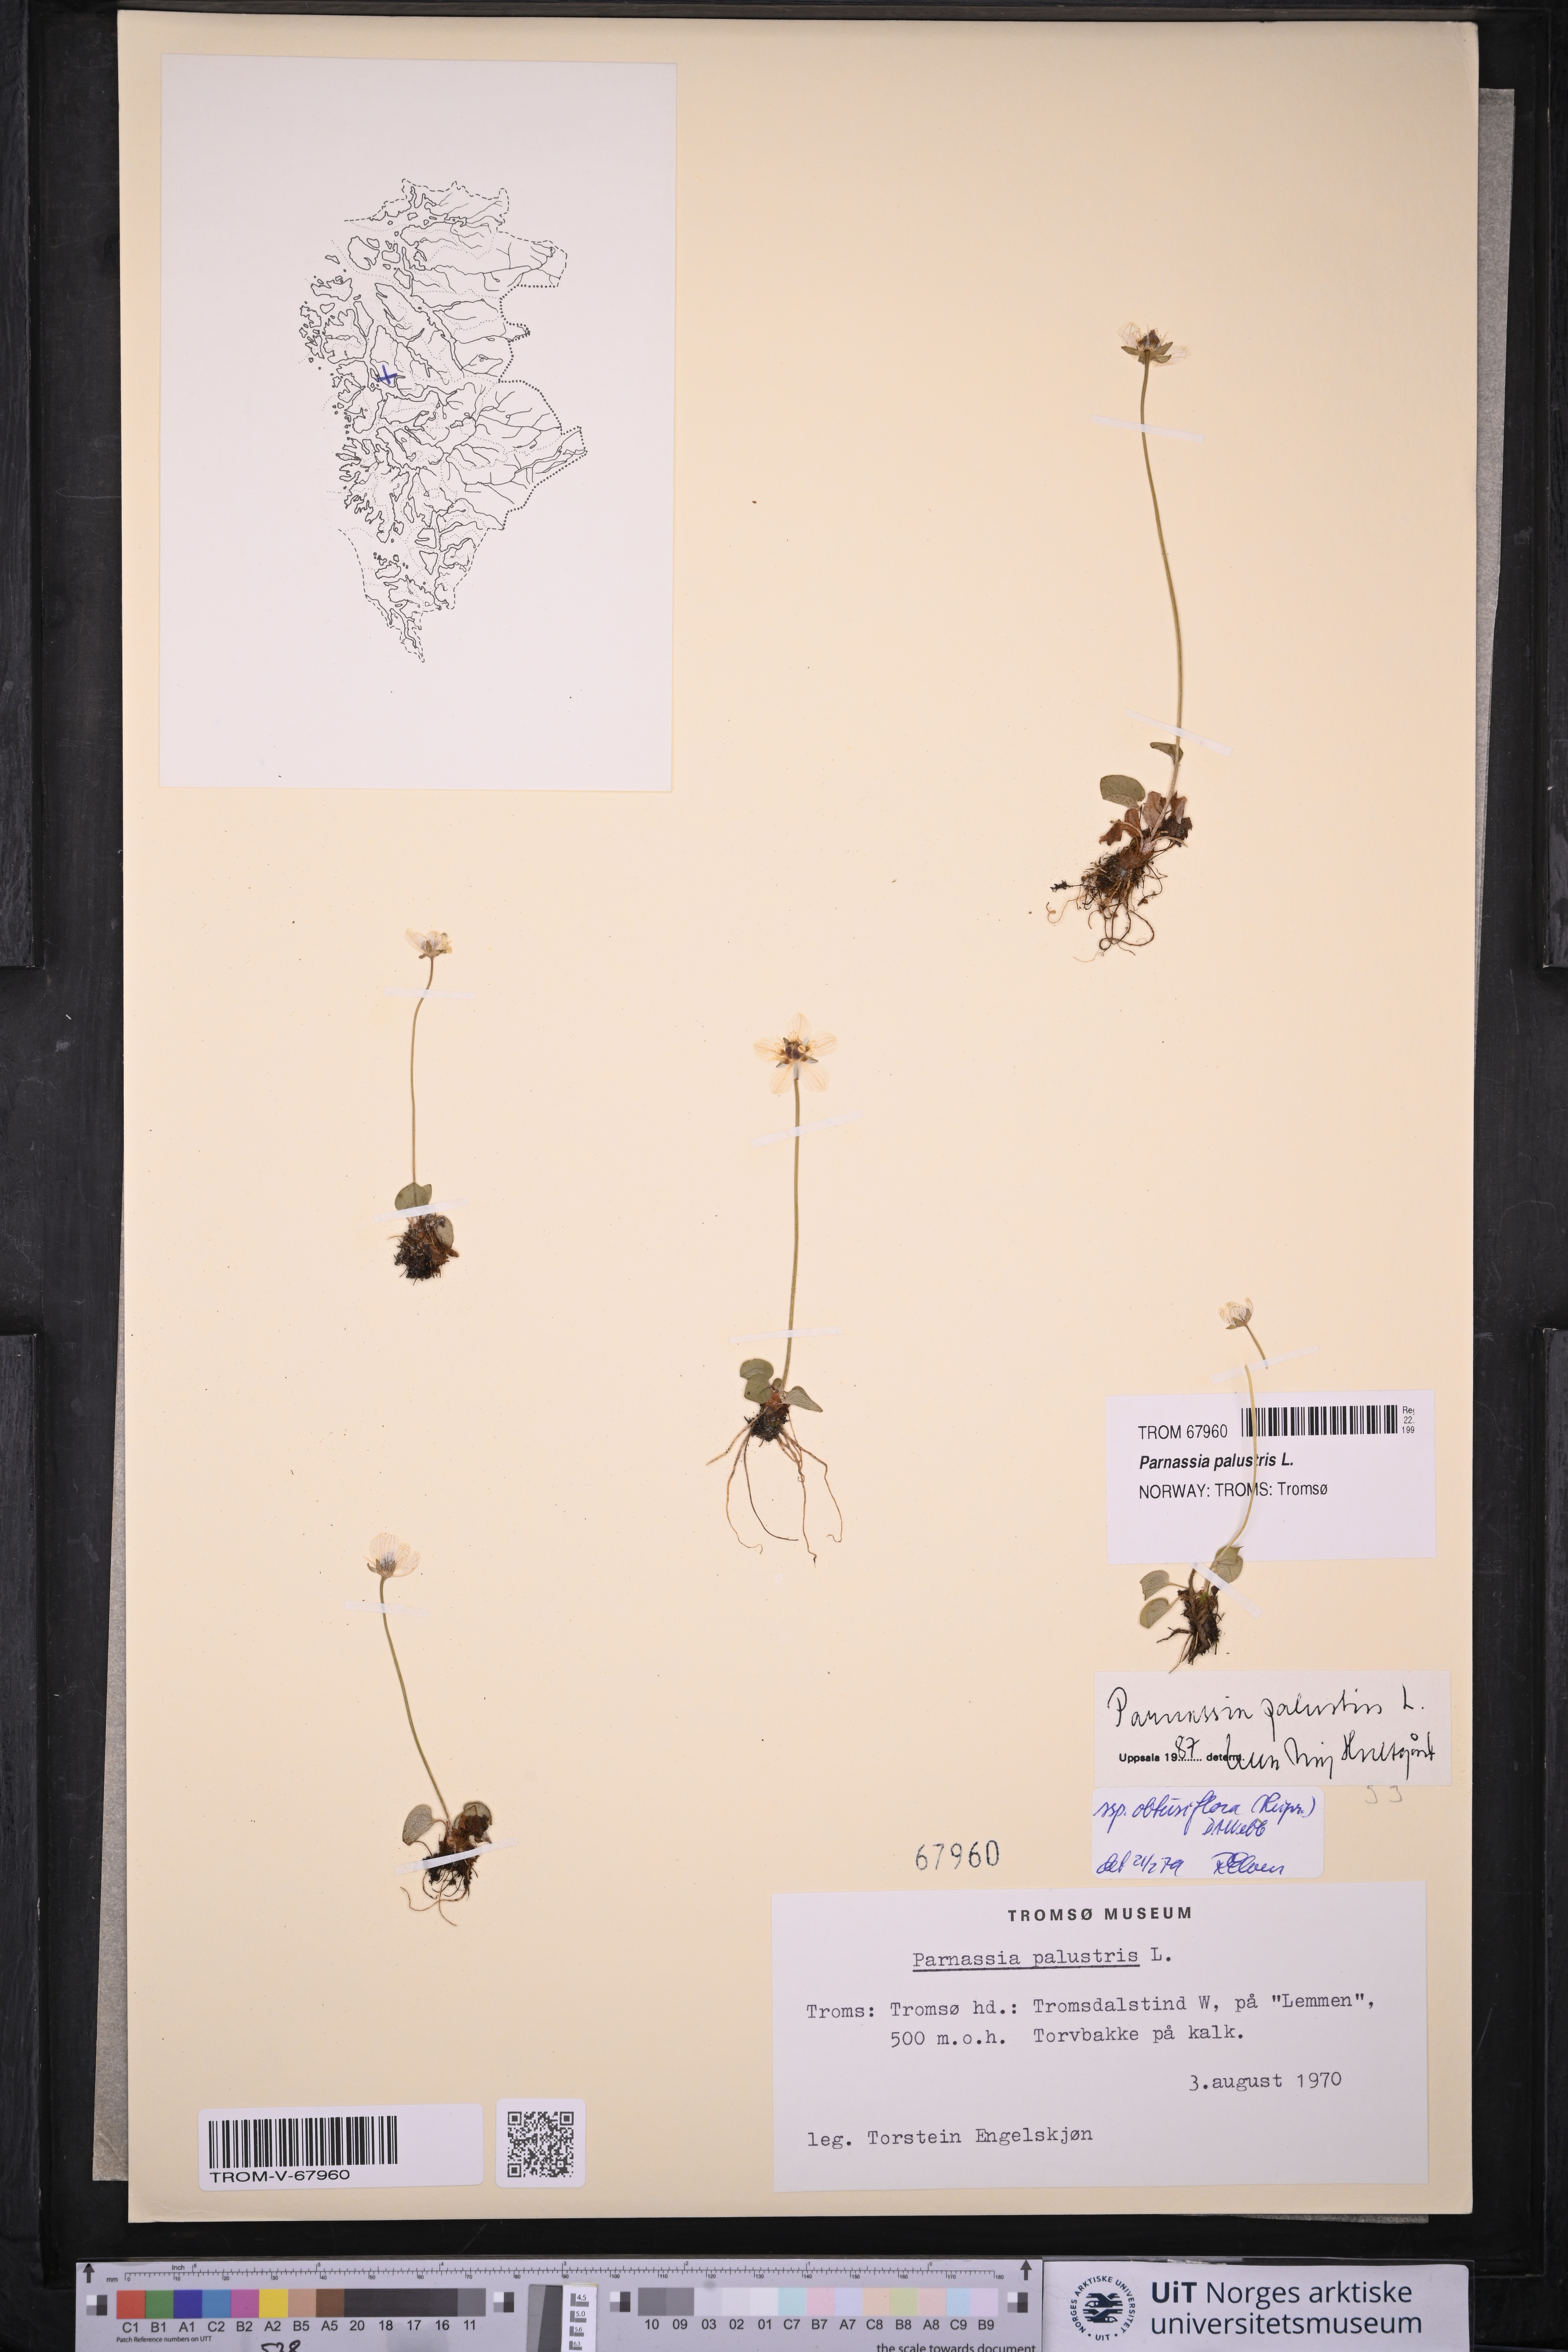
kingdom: Plantae
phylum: Tracheophyta
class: Magnoliopsida
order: Celastrales
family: Parnassiaceae
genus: Parnassia
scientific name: Parnassia palustris
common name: Grass-of-parnassus
